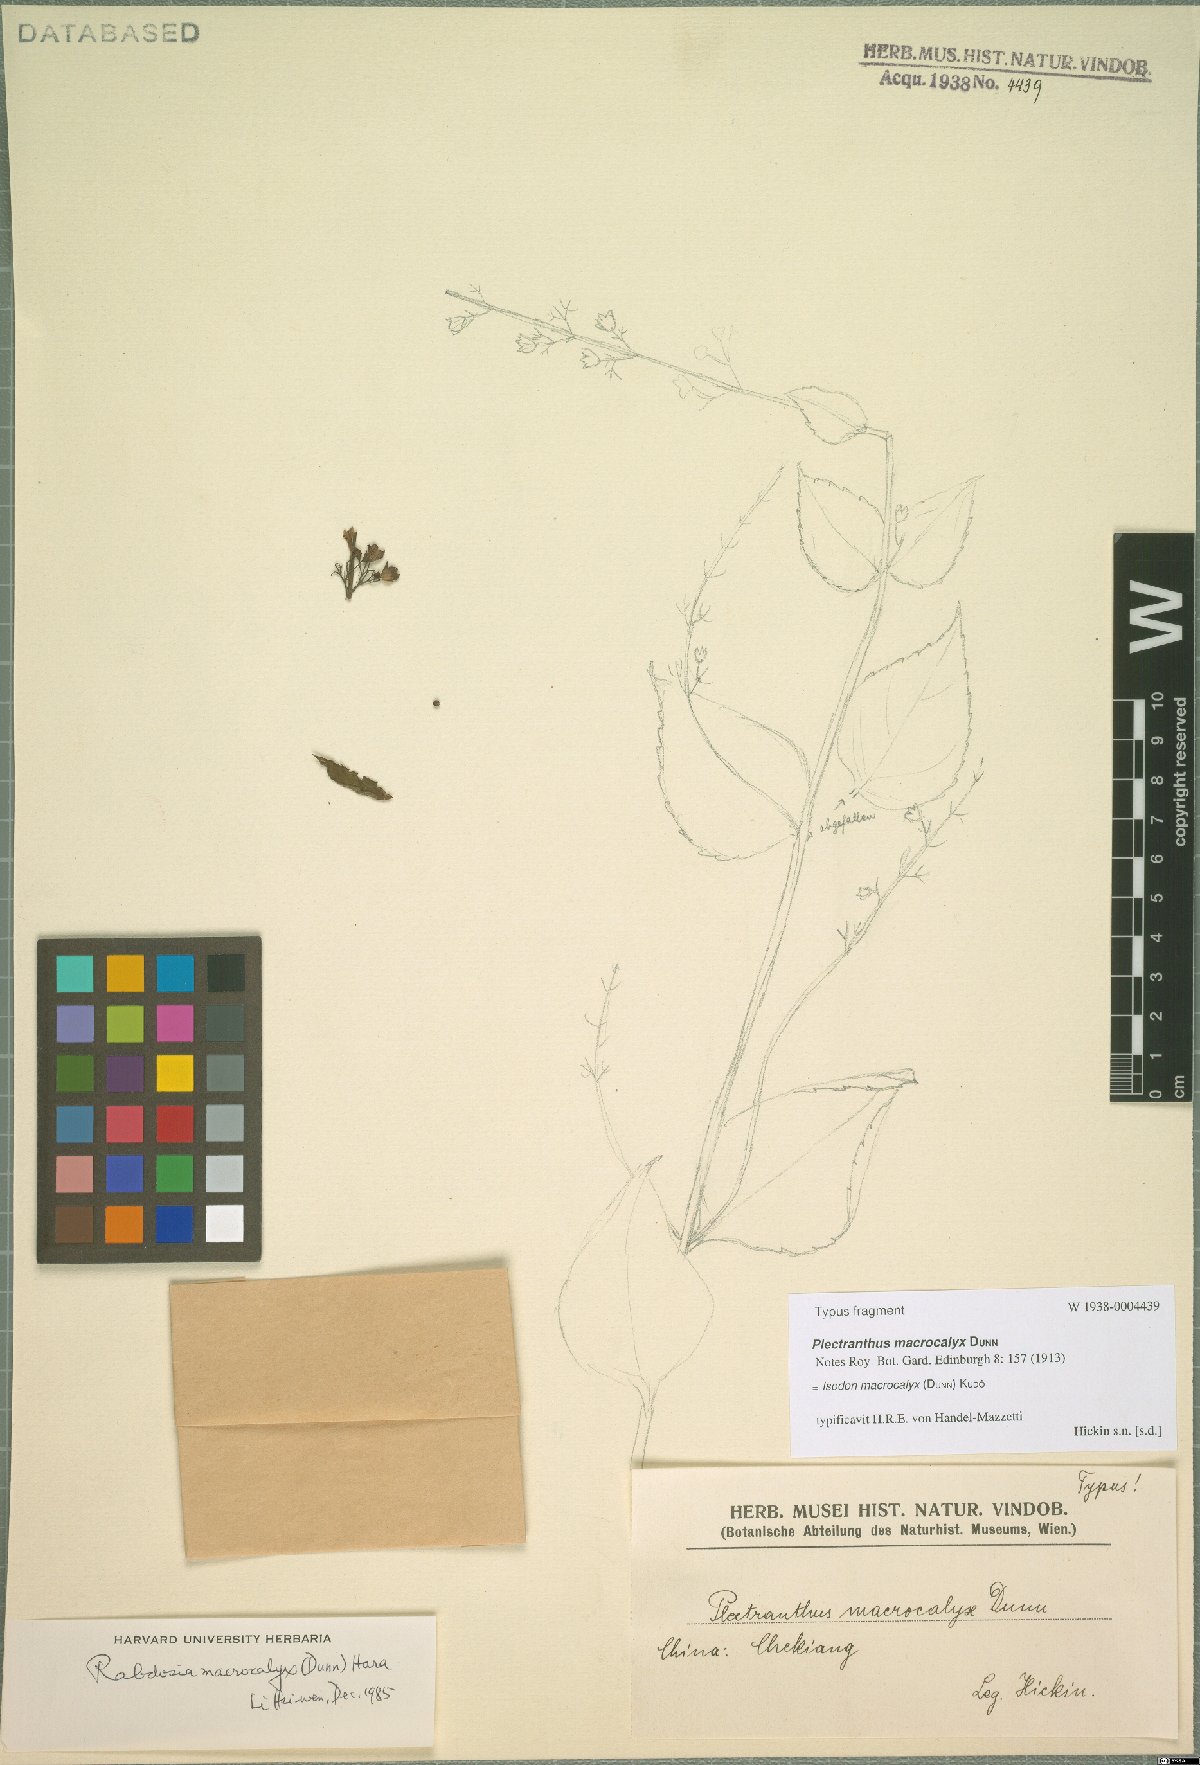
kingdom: Plantae
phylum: Tracheophyta
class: Magnoliopsida
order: Lamiales
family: Lamiaceae
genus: Isodon
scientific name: Isodon macrocalyx
